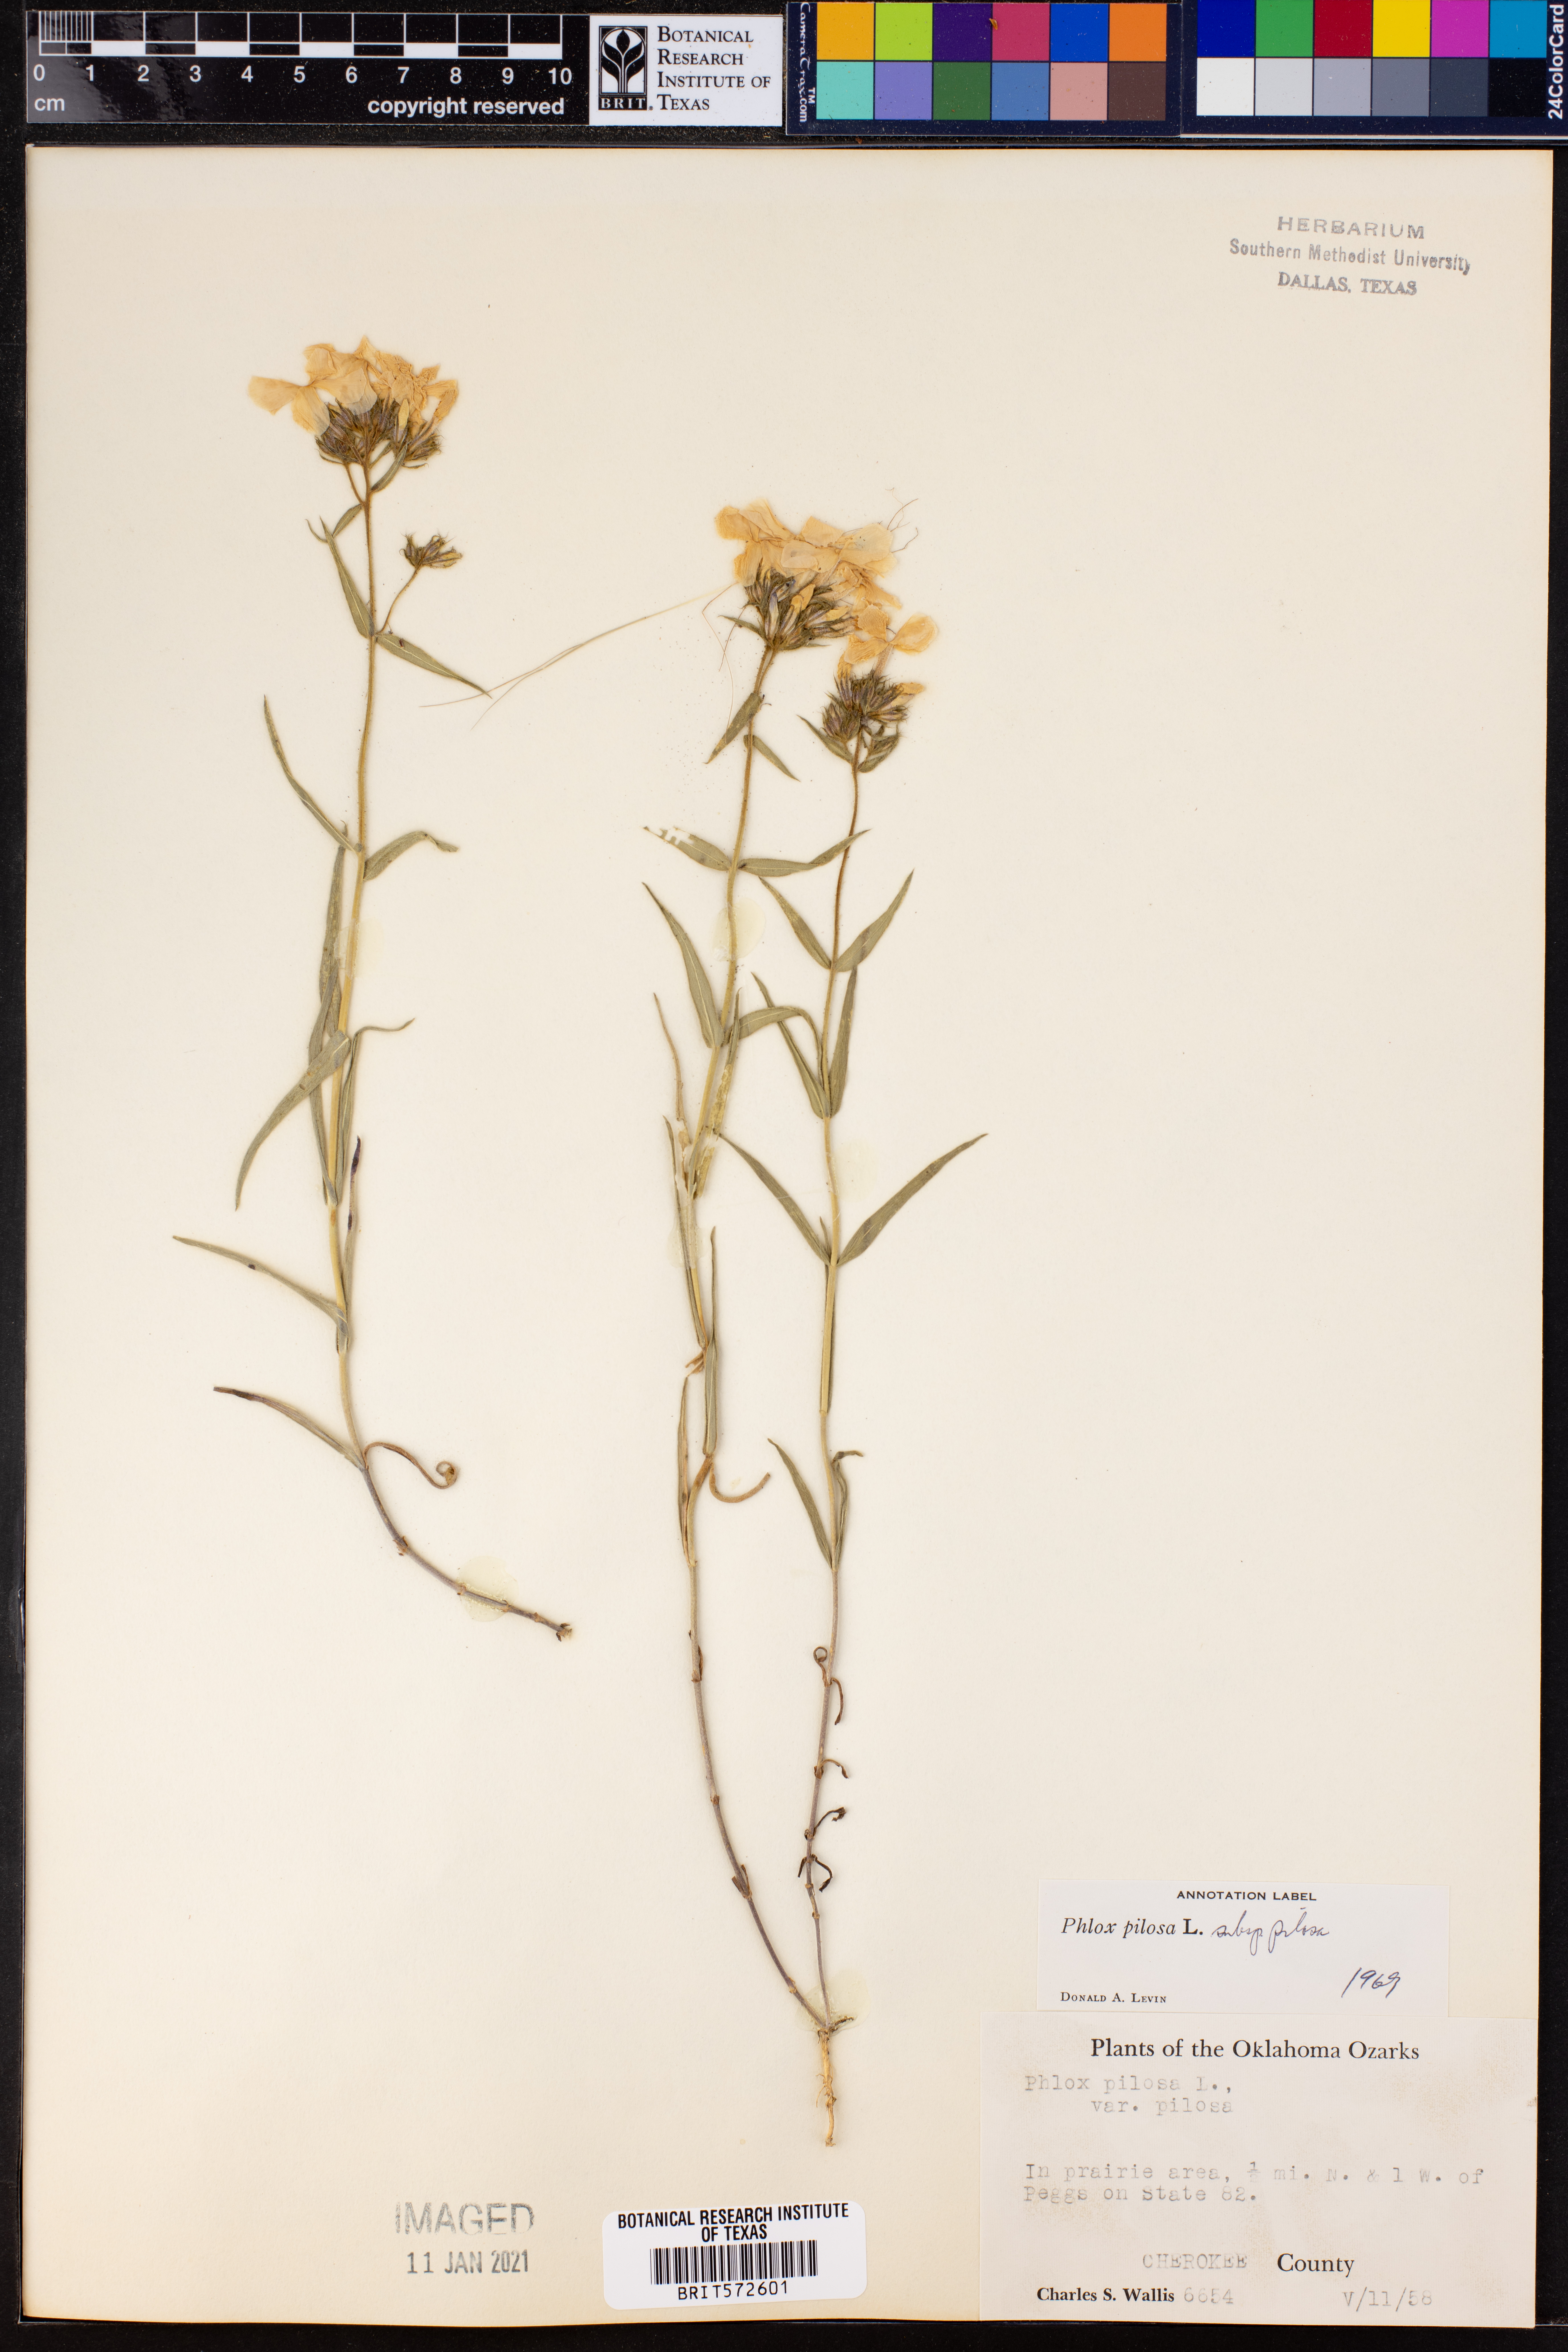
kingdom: Plantae
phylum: Tracheophyta
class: Magnoliopsida
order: Ericales
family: Polemoniaceae
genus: Phlox
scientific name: Phlox pilosa
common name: Prairie phlox
